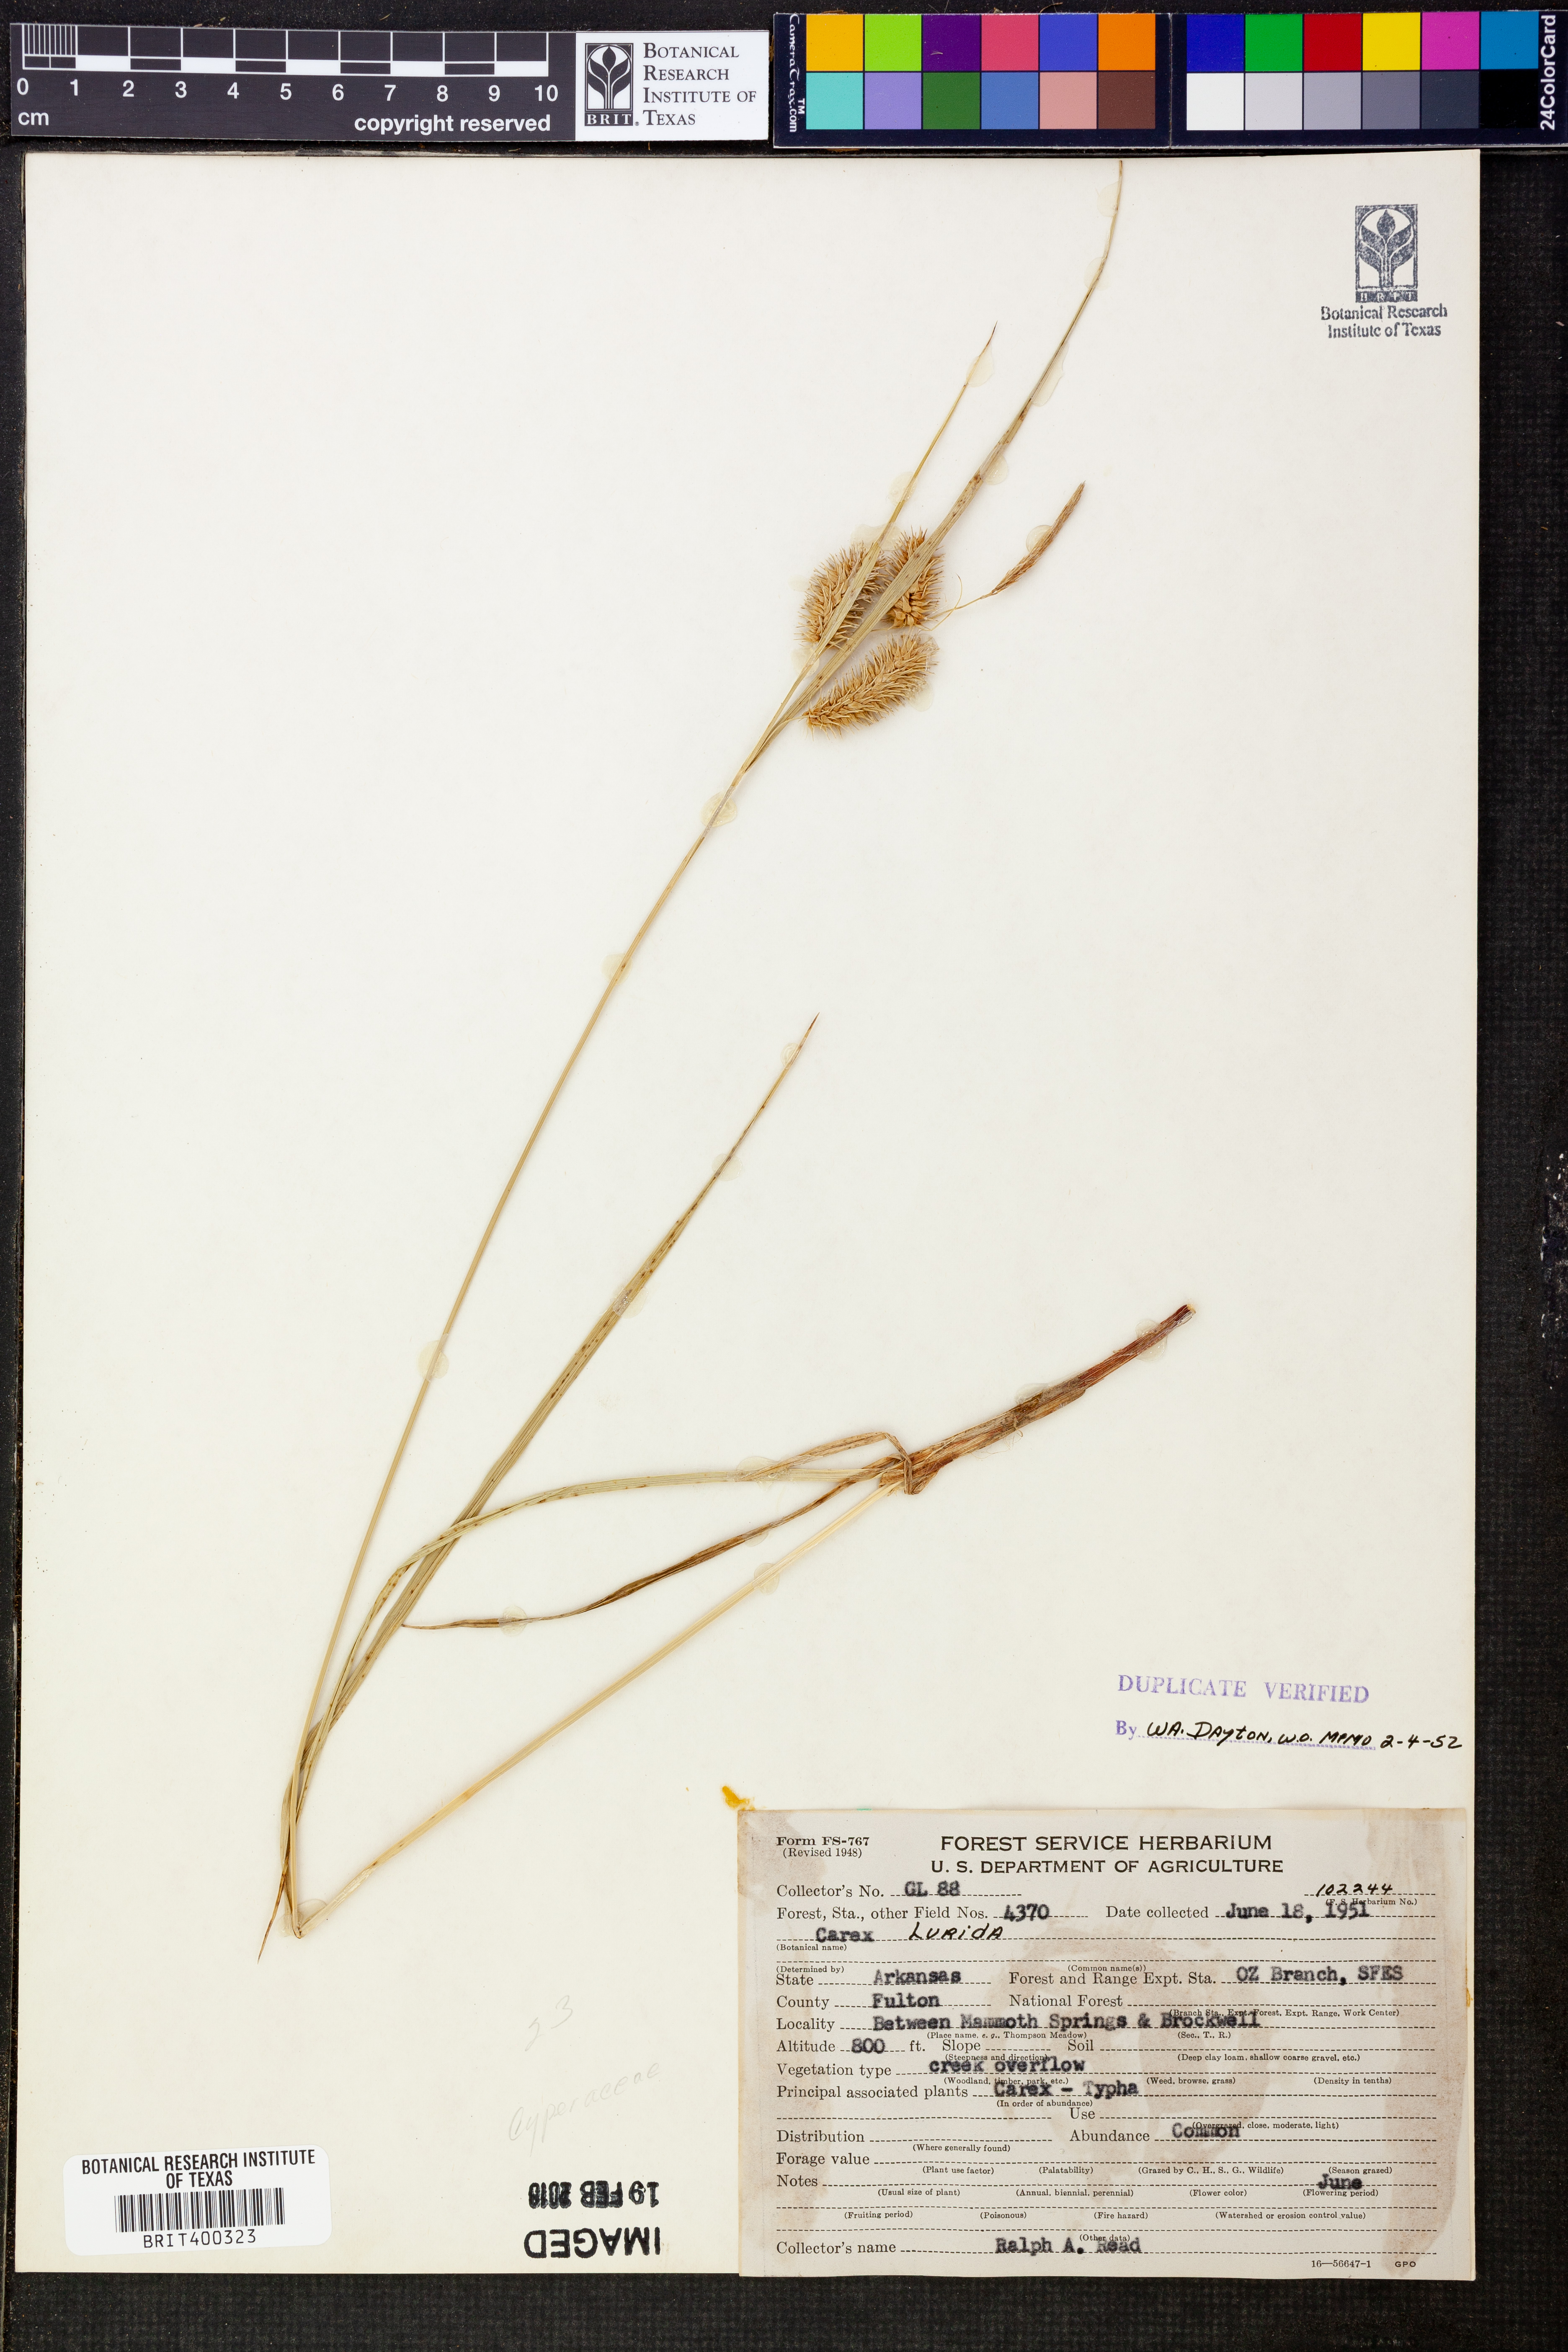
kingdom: Plantae
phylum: Tracheophyta
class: Liliopsida
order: Poales
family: Cyperaceae
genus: Carex
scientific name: Carex lurida
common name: Sallow sedge
